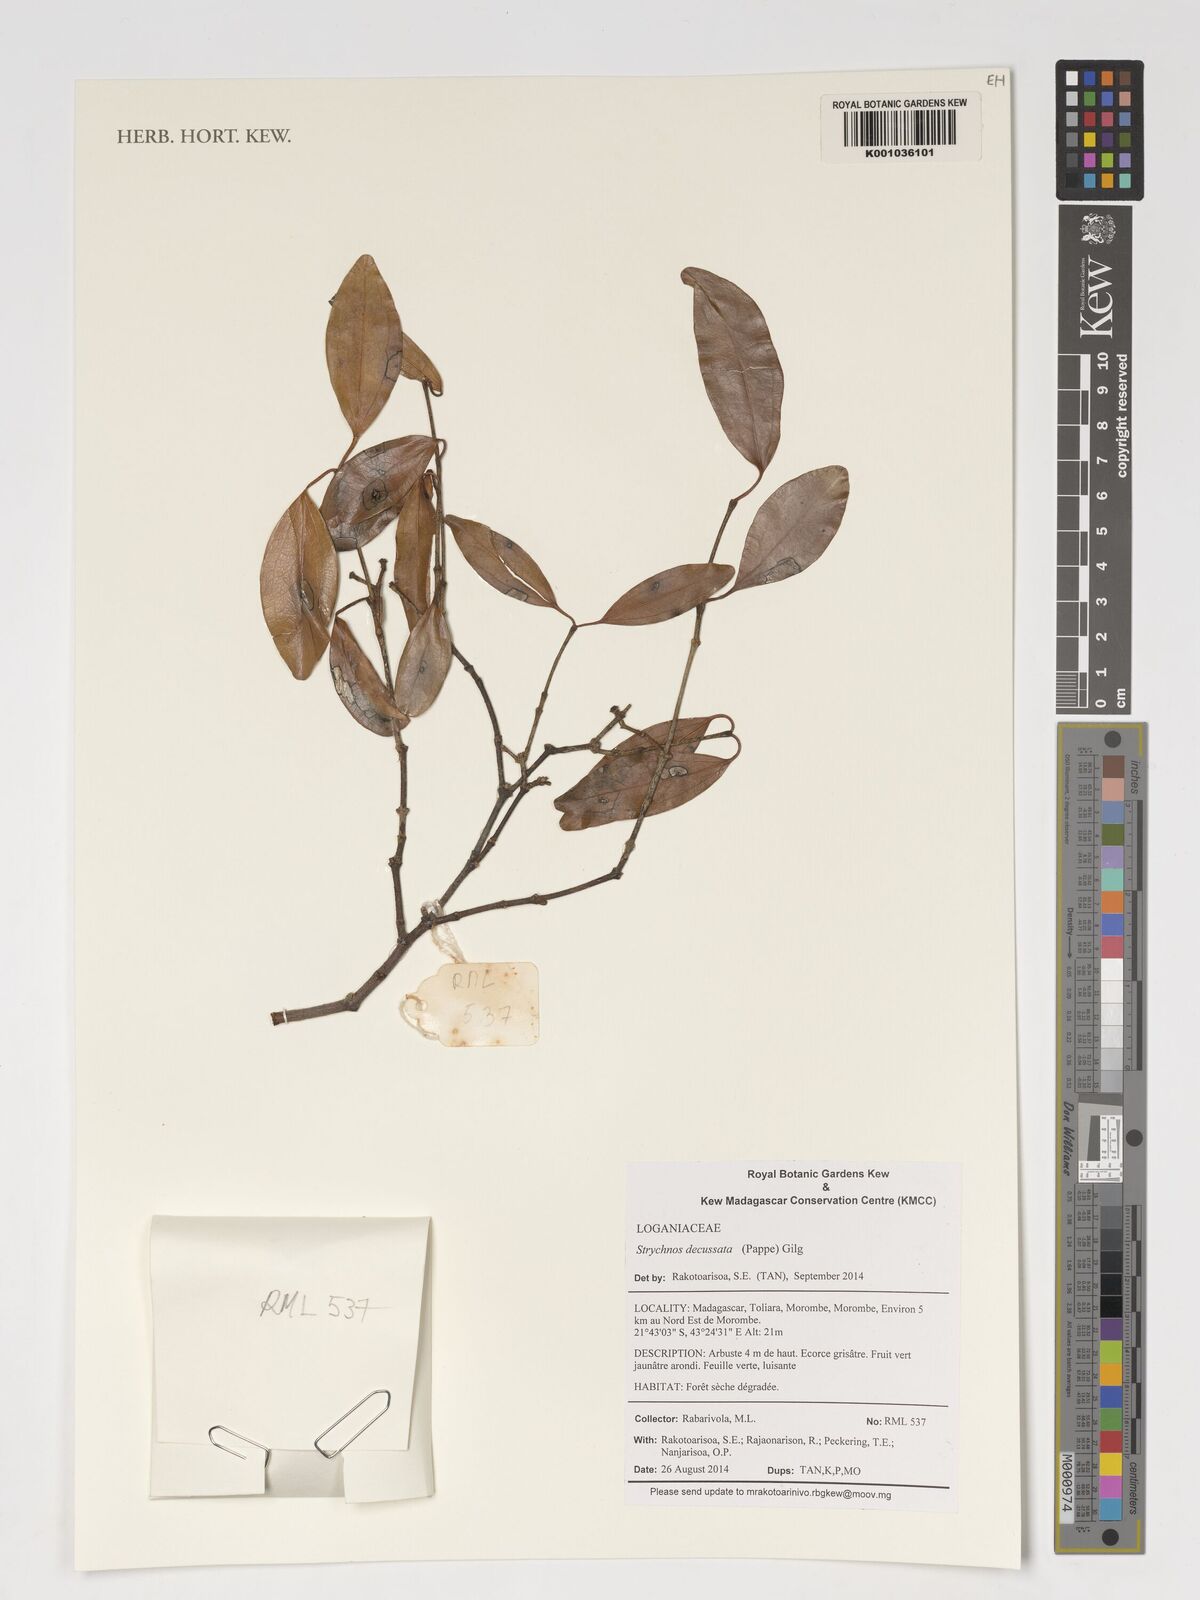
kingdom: Plantae
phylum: Tracheophyta
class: Magnoliopsida
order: Gentianales
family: Loganiaceae
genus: Strychnos
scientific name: Strychnos decussata
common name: Cape teak
